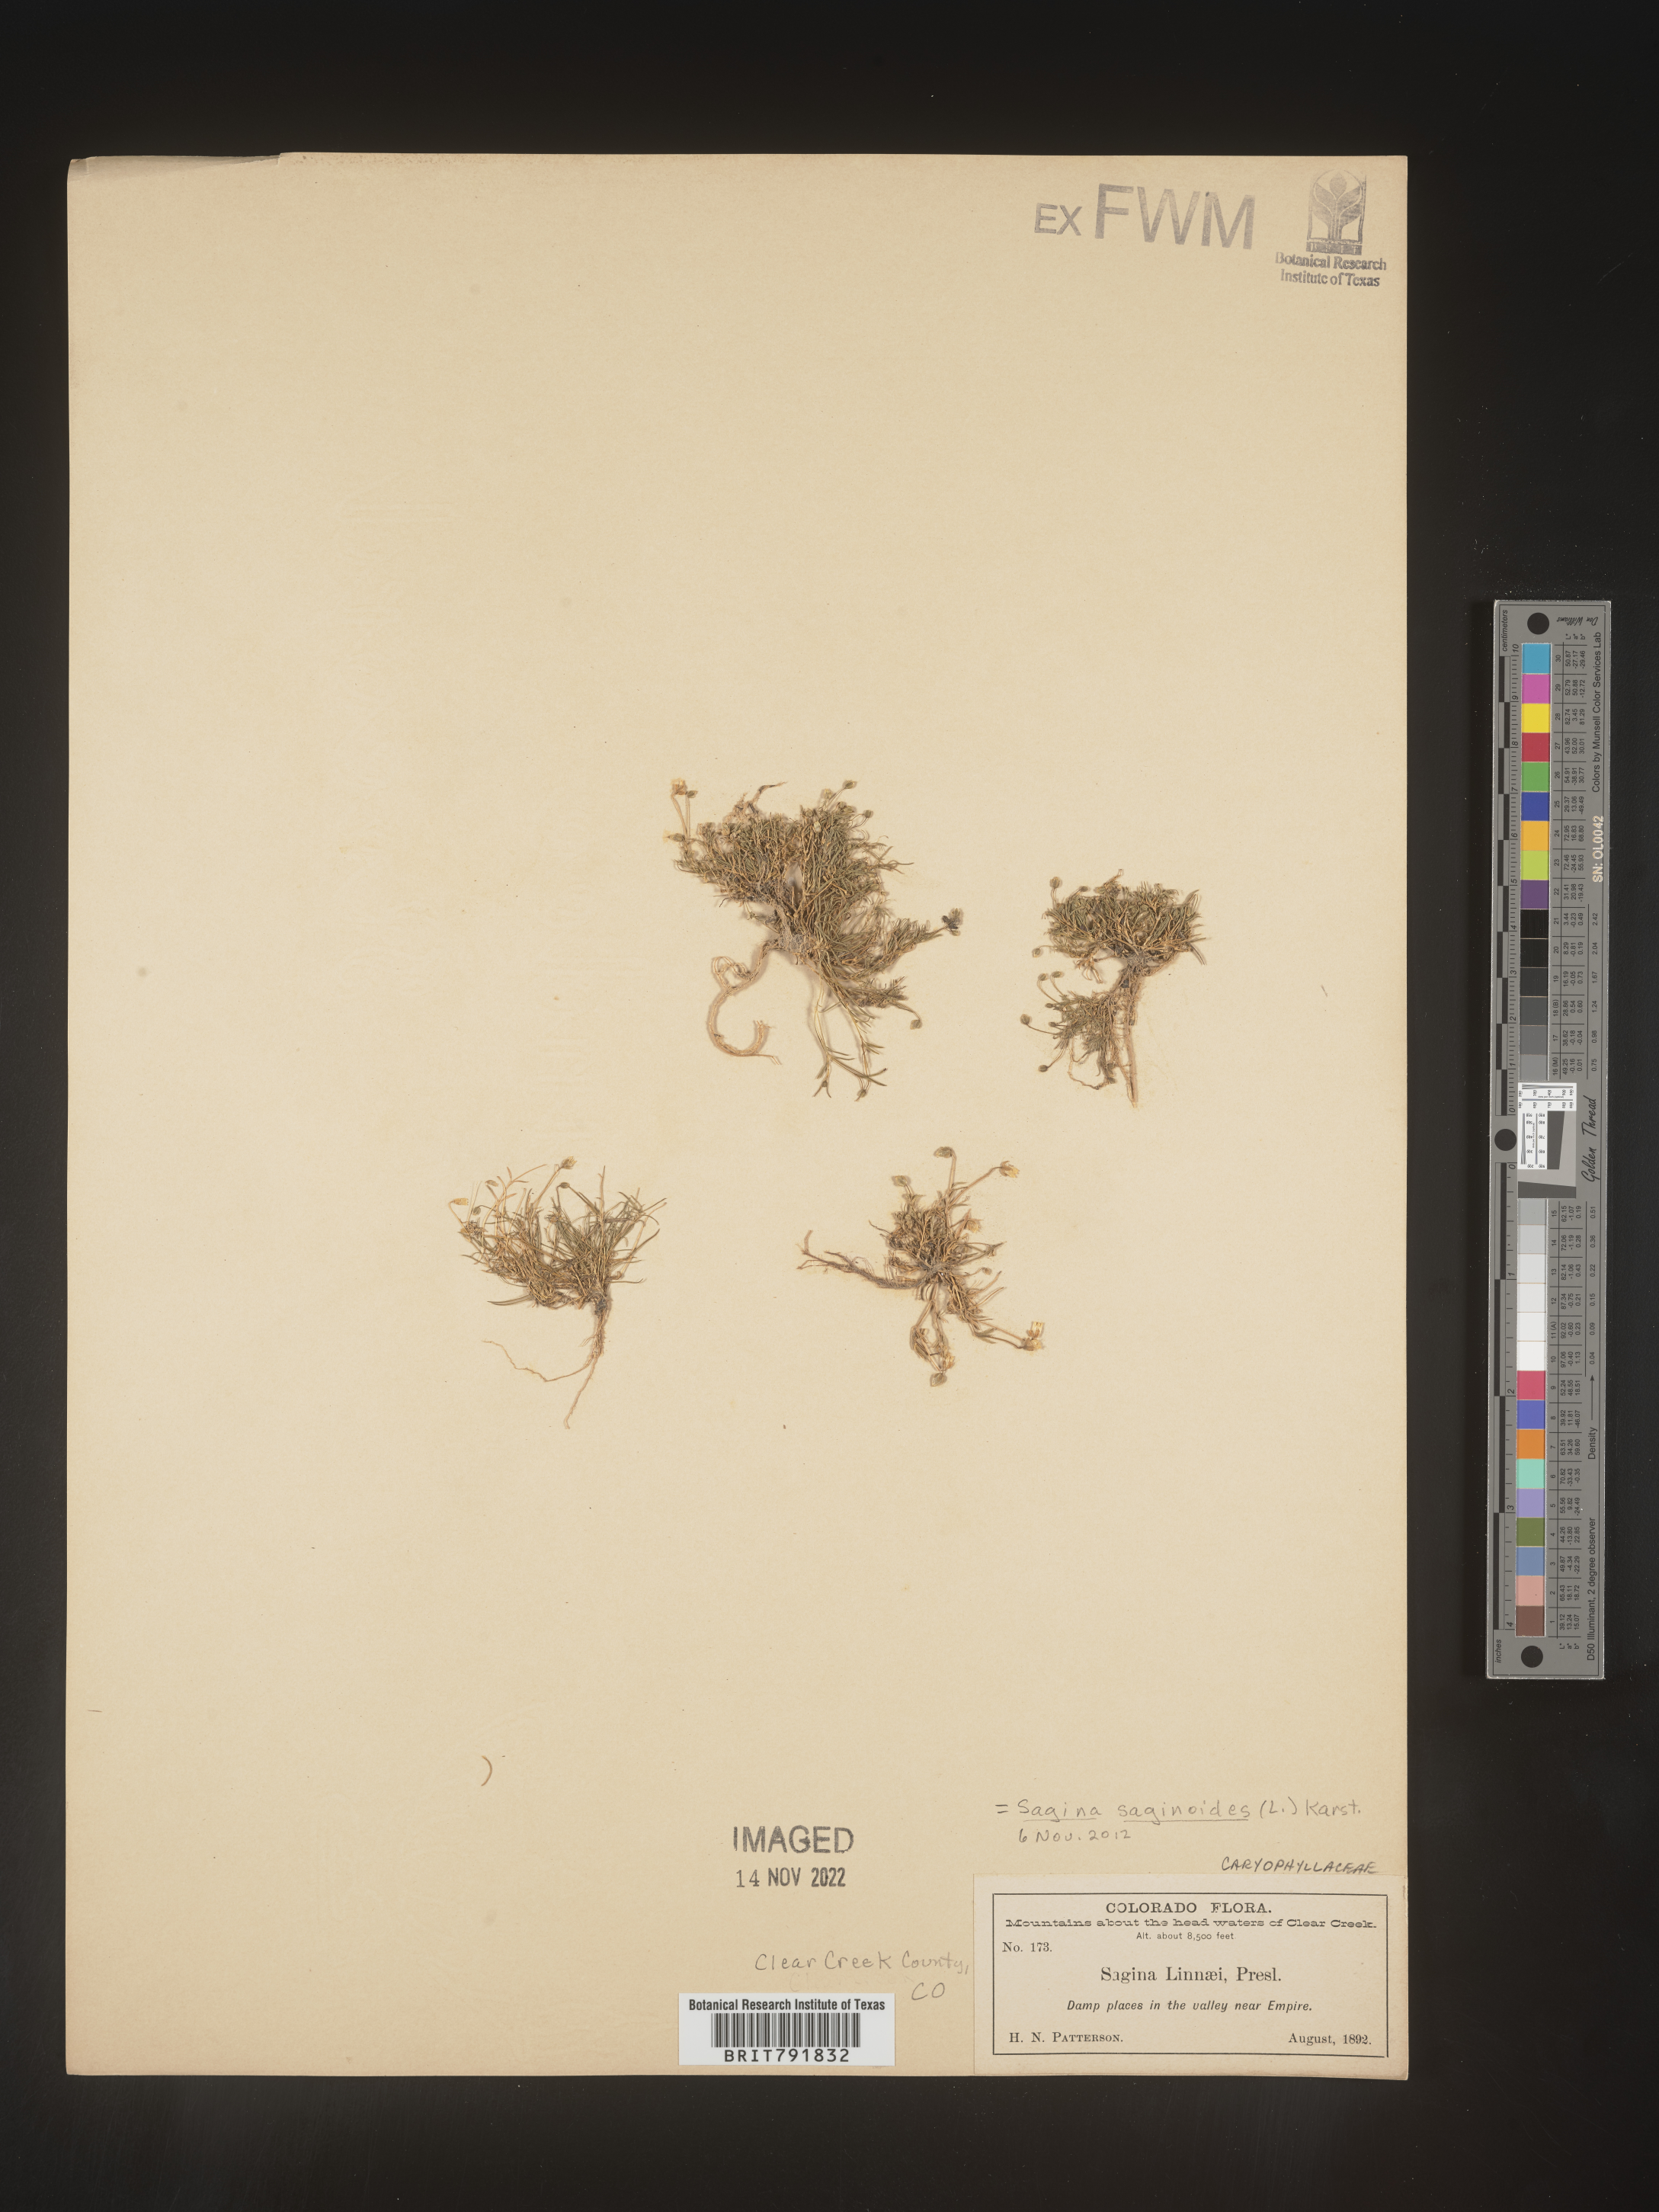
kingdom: Plantae
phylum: Tracheophyta
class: Magnoliopsida
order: Caryophyllales
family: Caryophyllaceae
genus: Sagina
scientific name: Sagina
